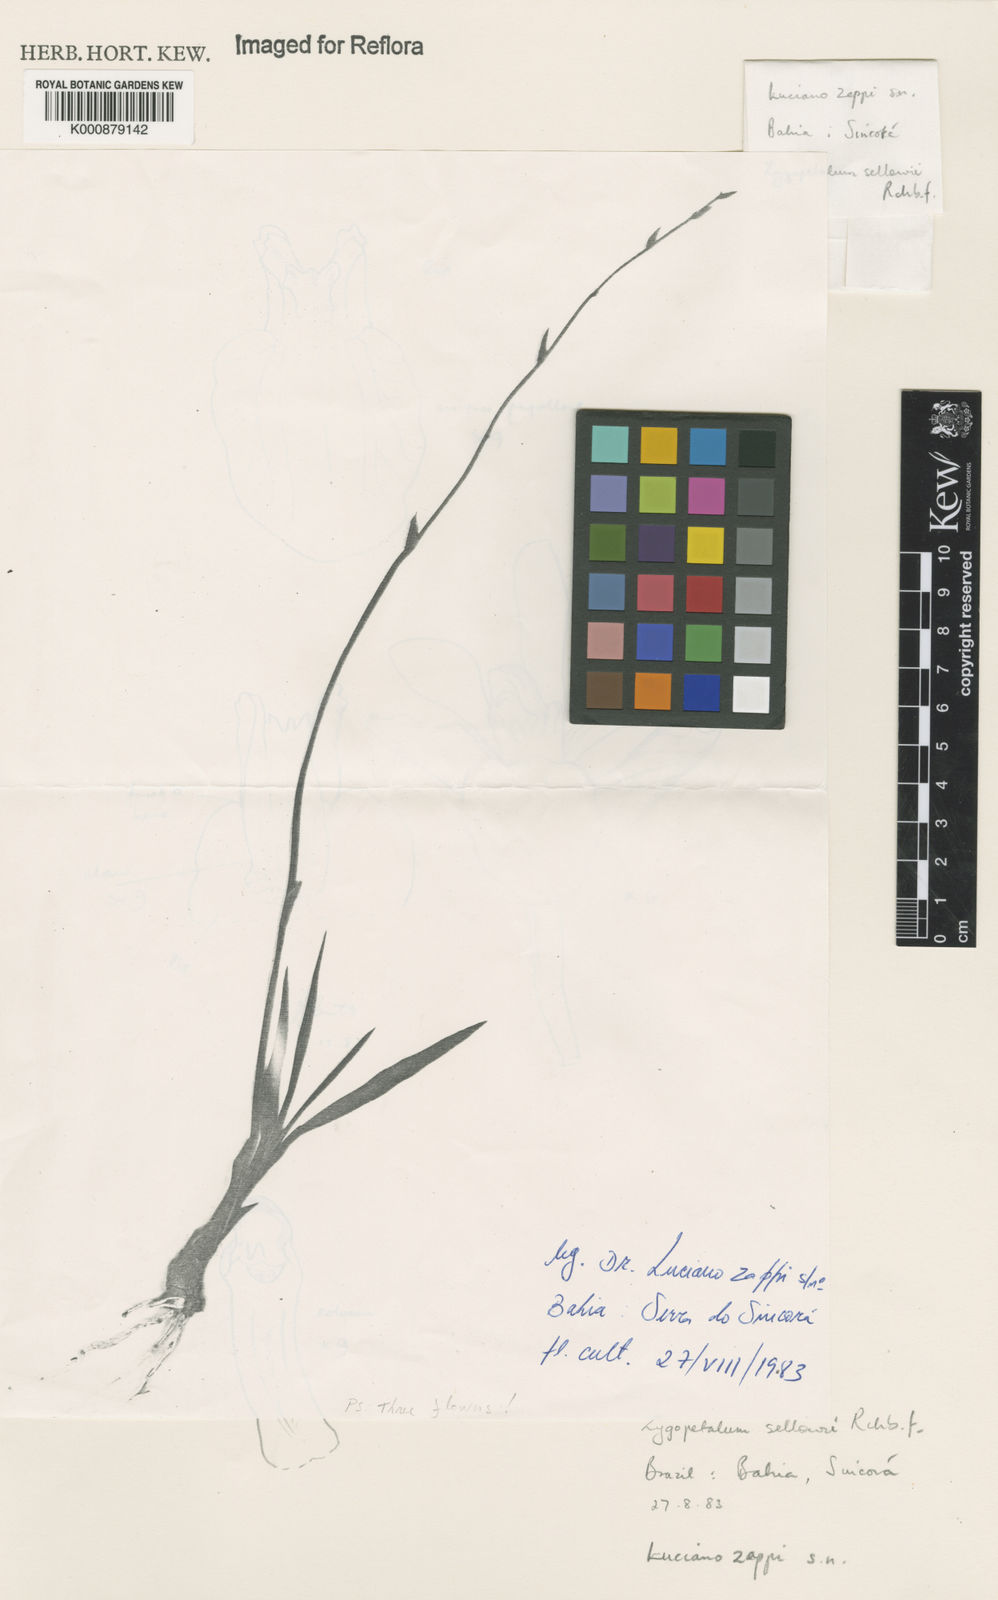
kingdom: Plantae
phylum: Tracheophyta
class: Liliopsida
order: Asparagales
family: Orchidaceae
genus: Zygopetalum
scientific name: Zygopetalum sellowii
